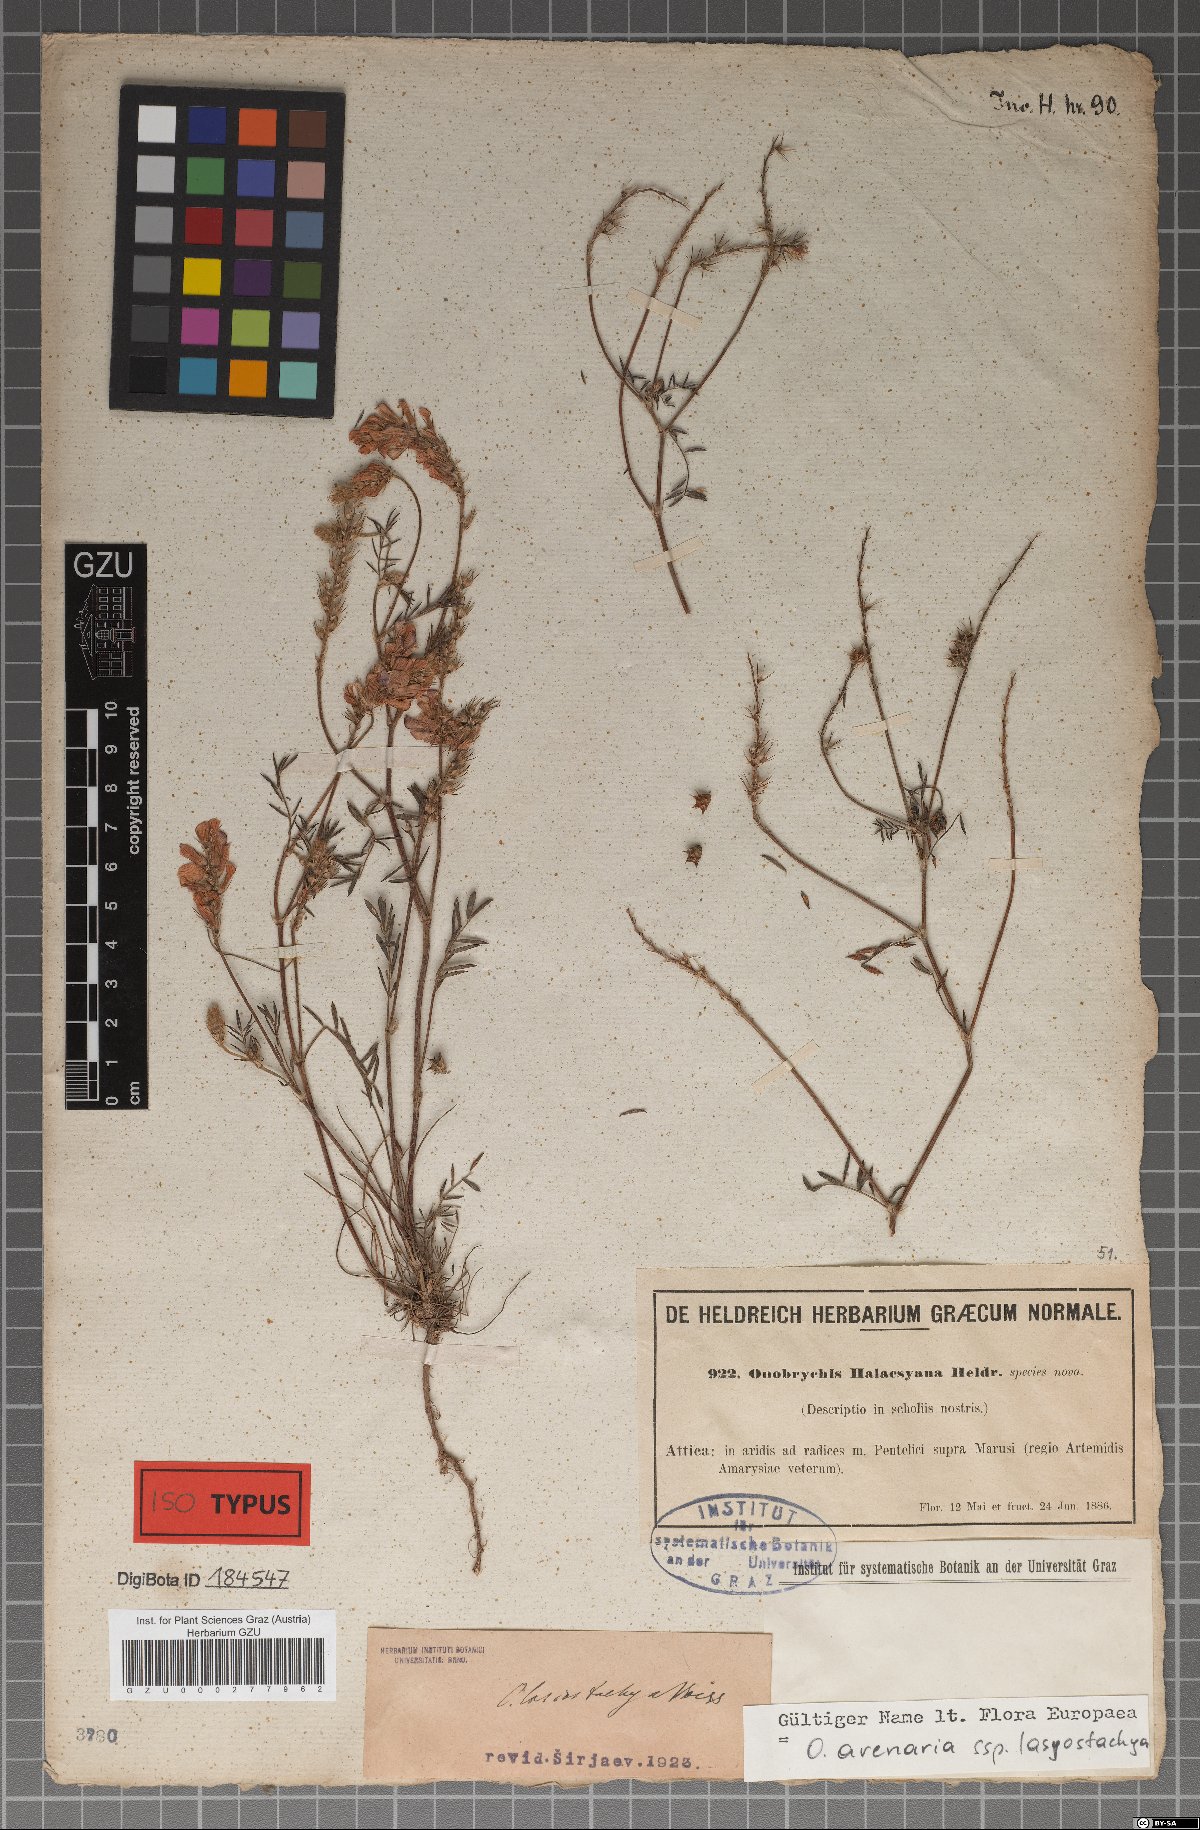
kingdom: Plantae
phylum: Tracheophyta
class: Magnoliopsida
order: Fabales
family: Fabaceae
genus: Onobrychis
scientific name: Onobrychis montana
